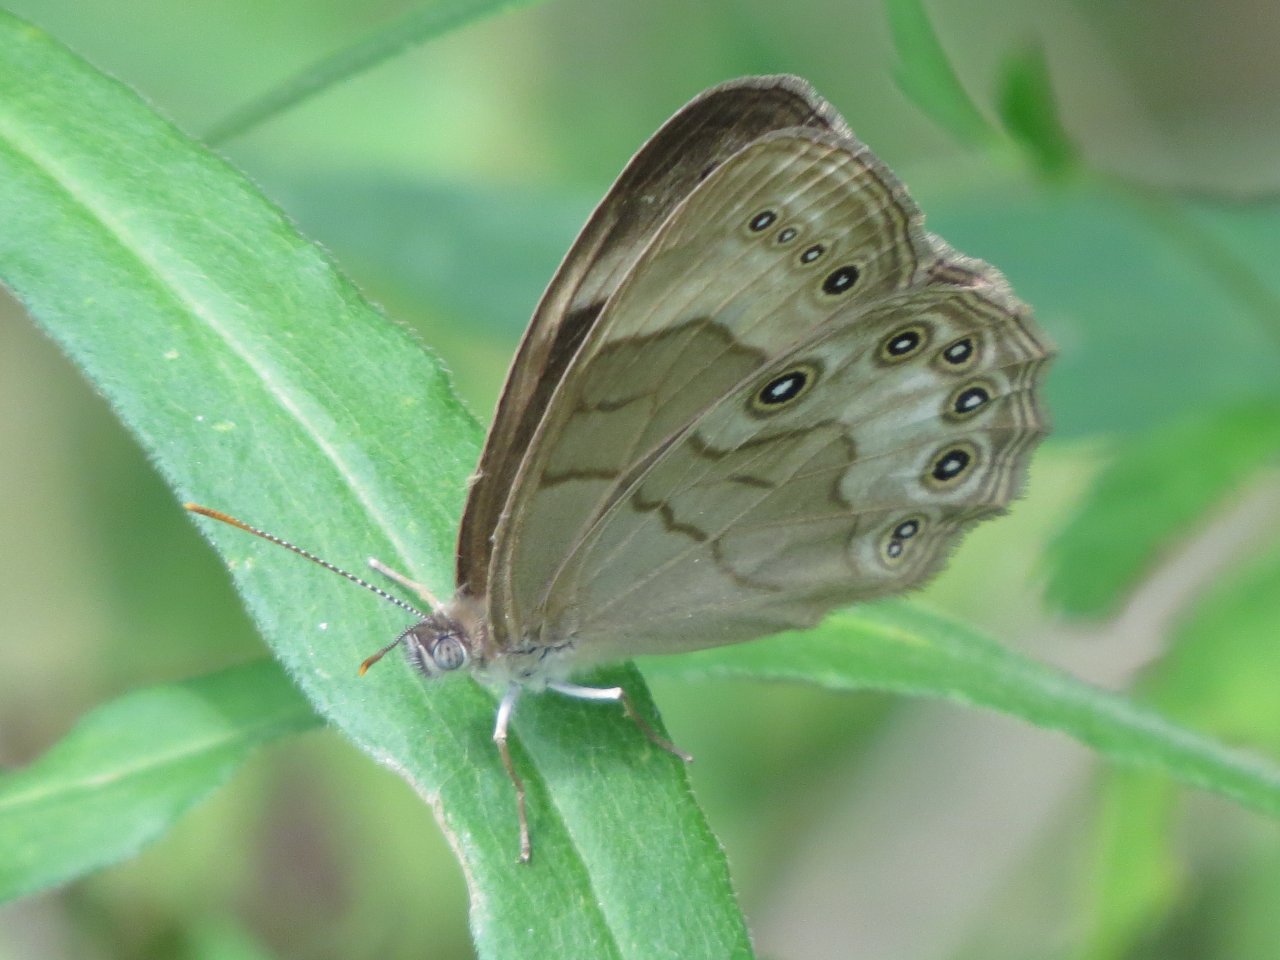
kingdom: Animalia
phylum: Arthropoda
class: Insecta
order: Lepidoptera
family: Nymphalidae
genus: Lethe
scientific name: Lethe eurydice
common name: Appalachian Eyed Brown
